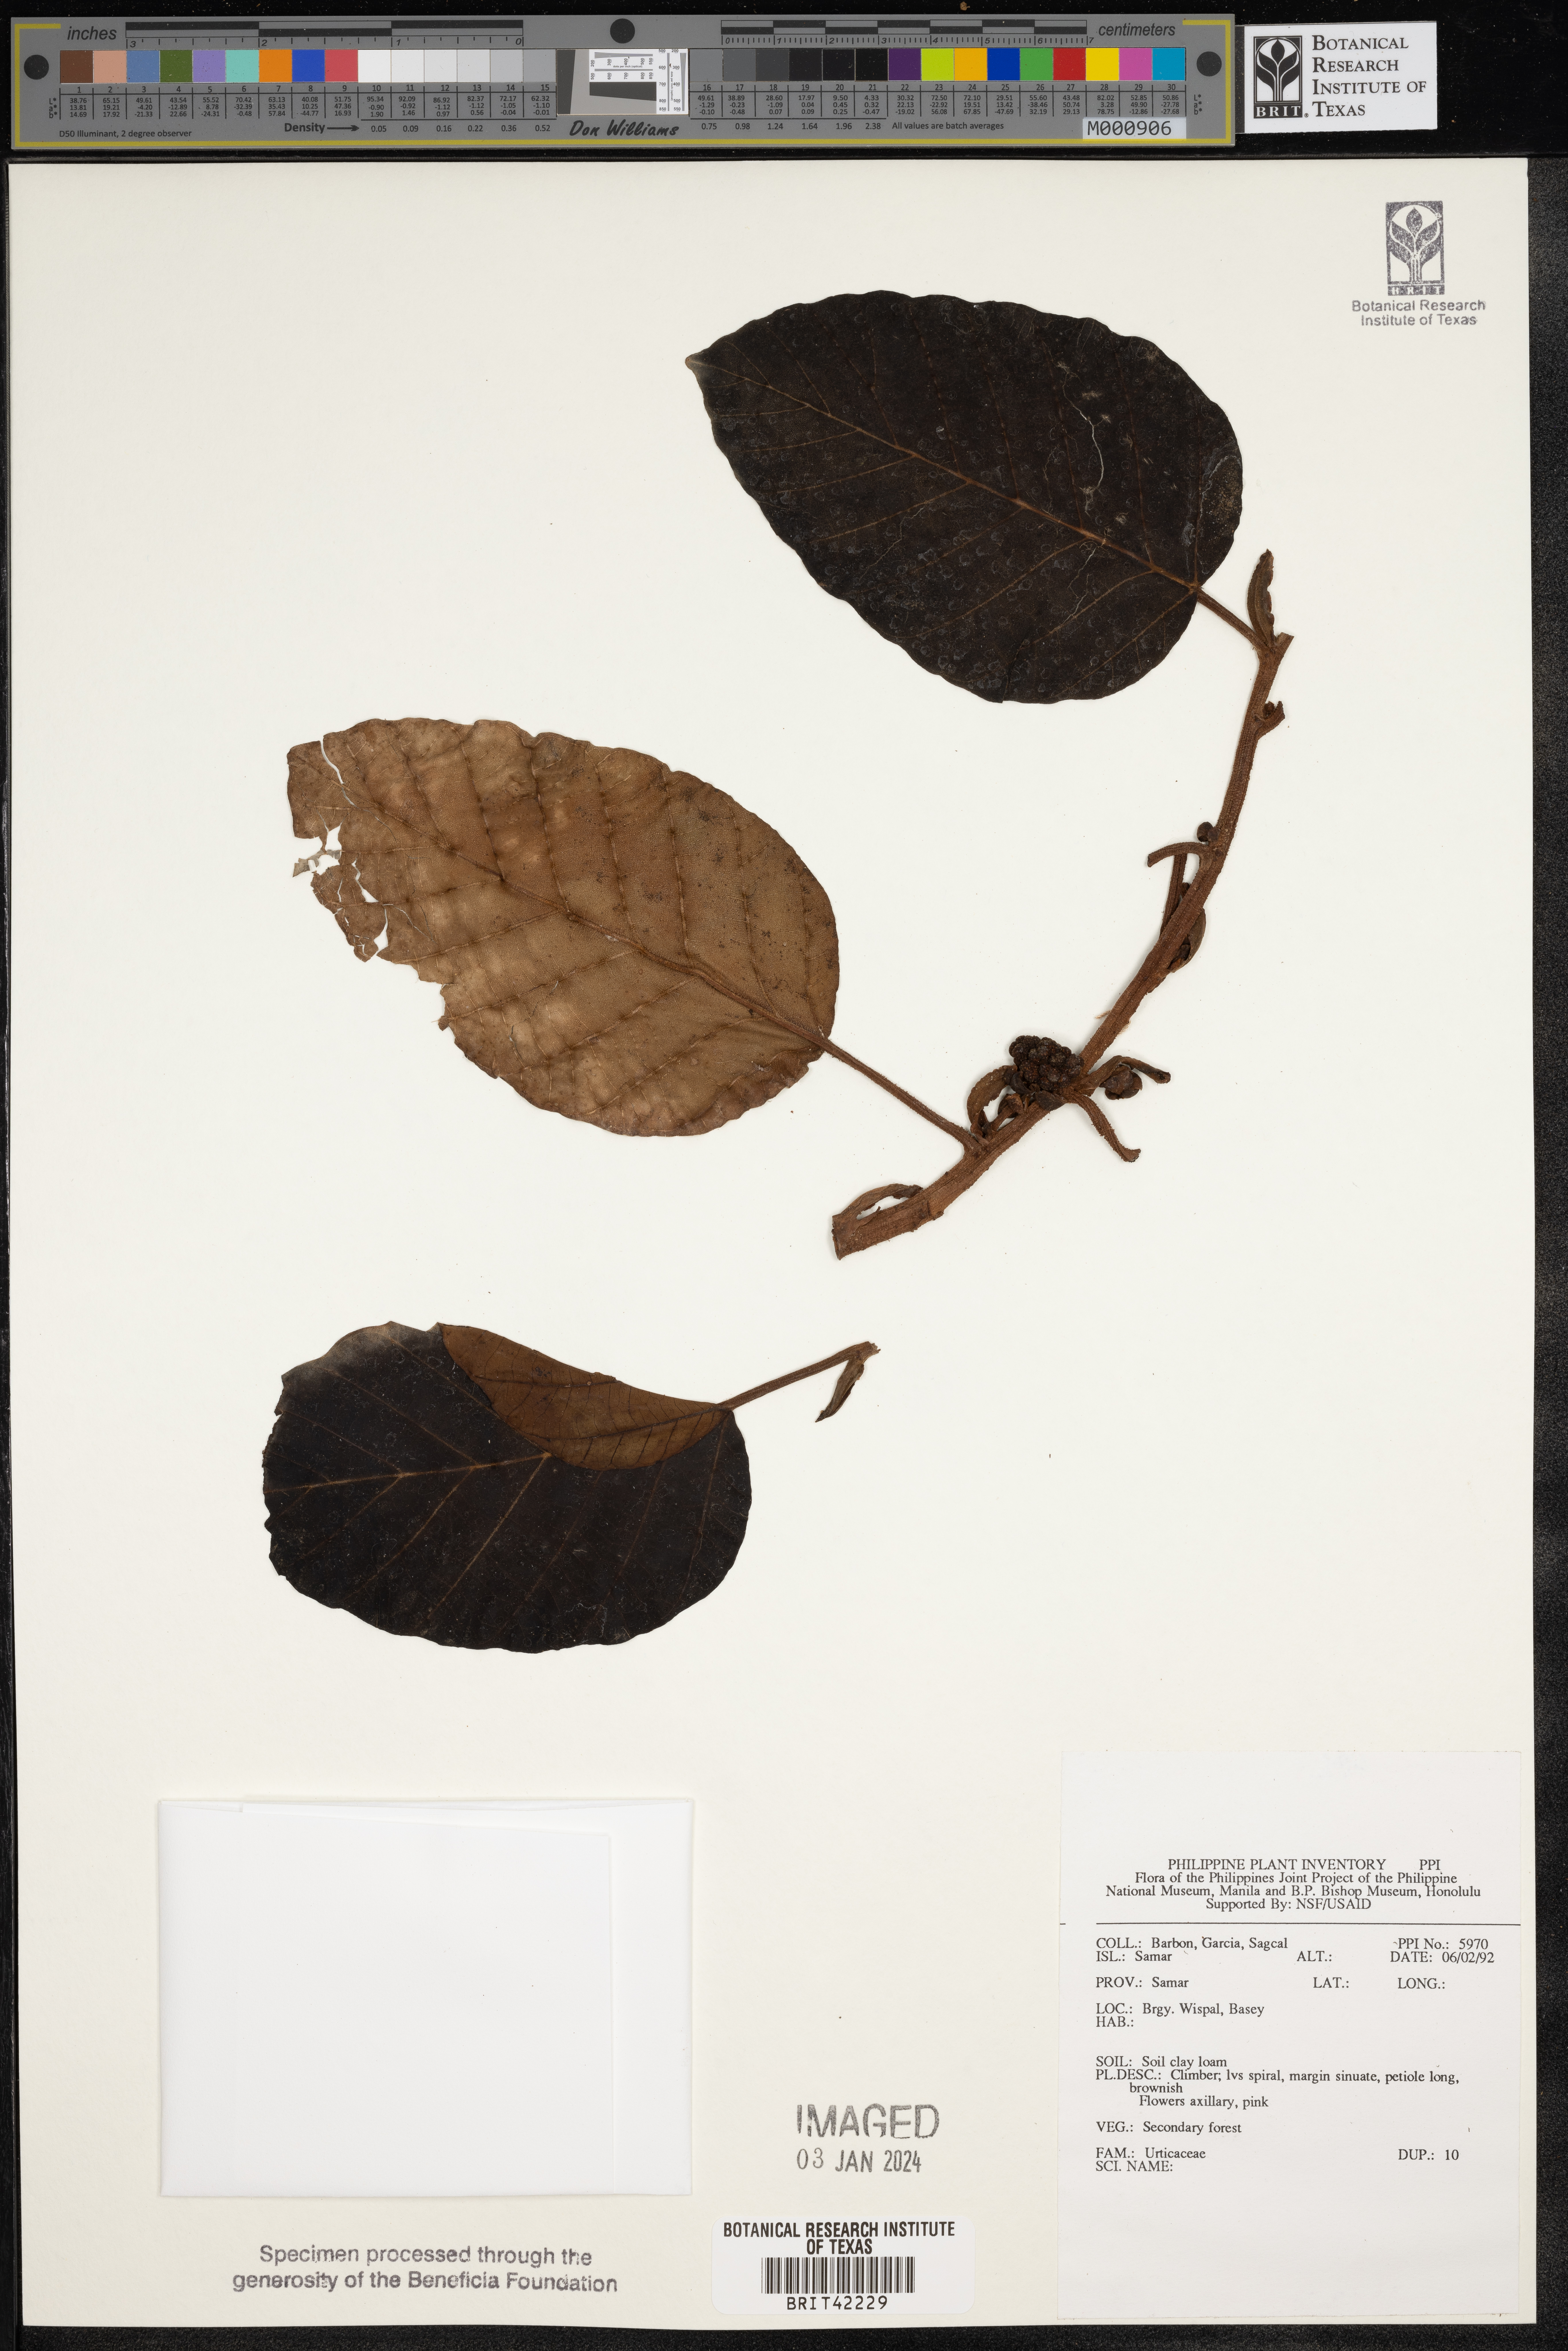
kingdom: Plantae
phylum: Tracheophyta
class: Magnoliopsida
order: Rosales
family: Urticaceae
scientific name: Urticaceae
